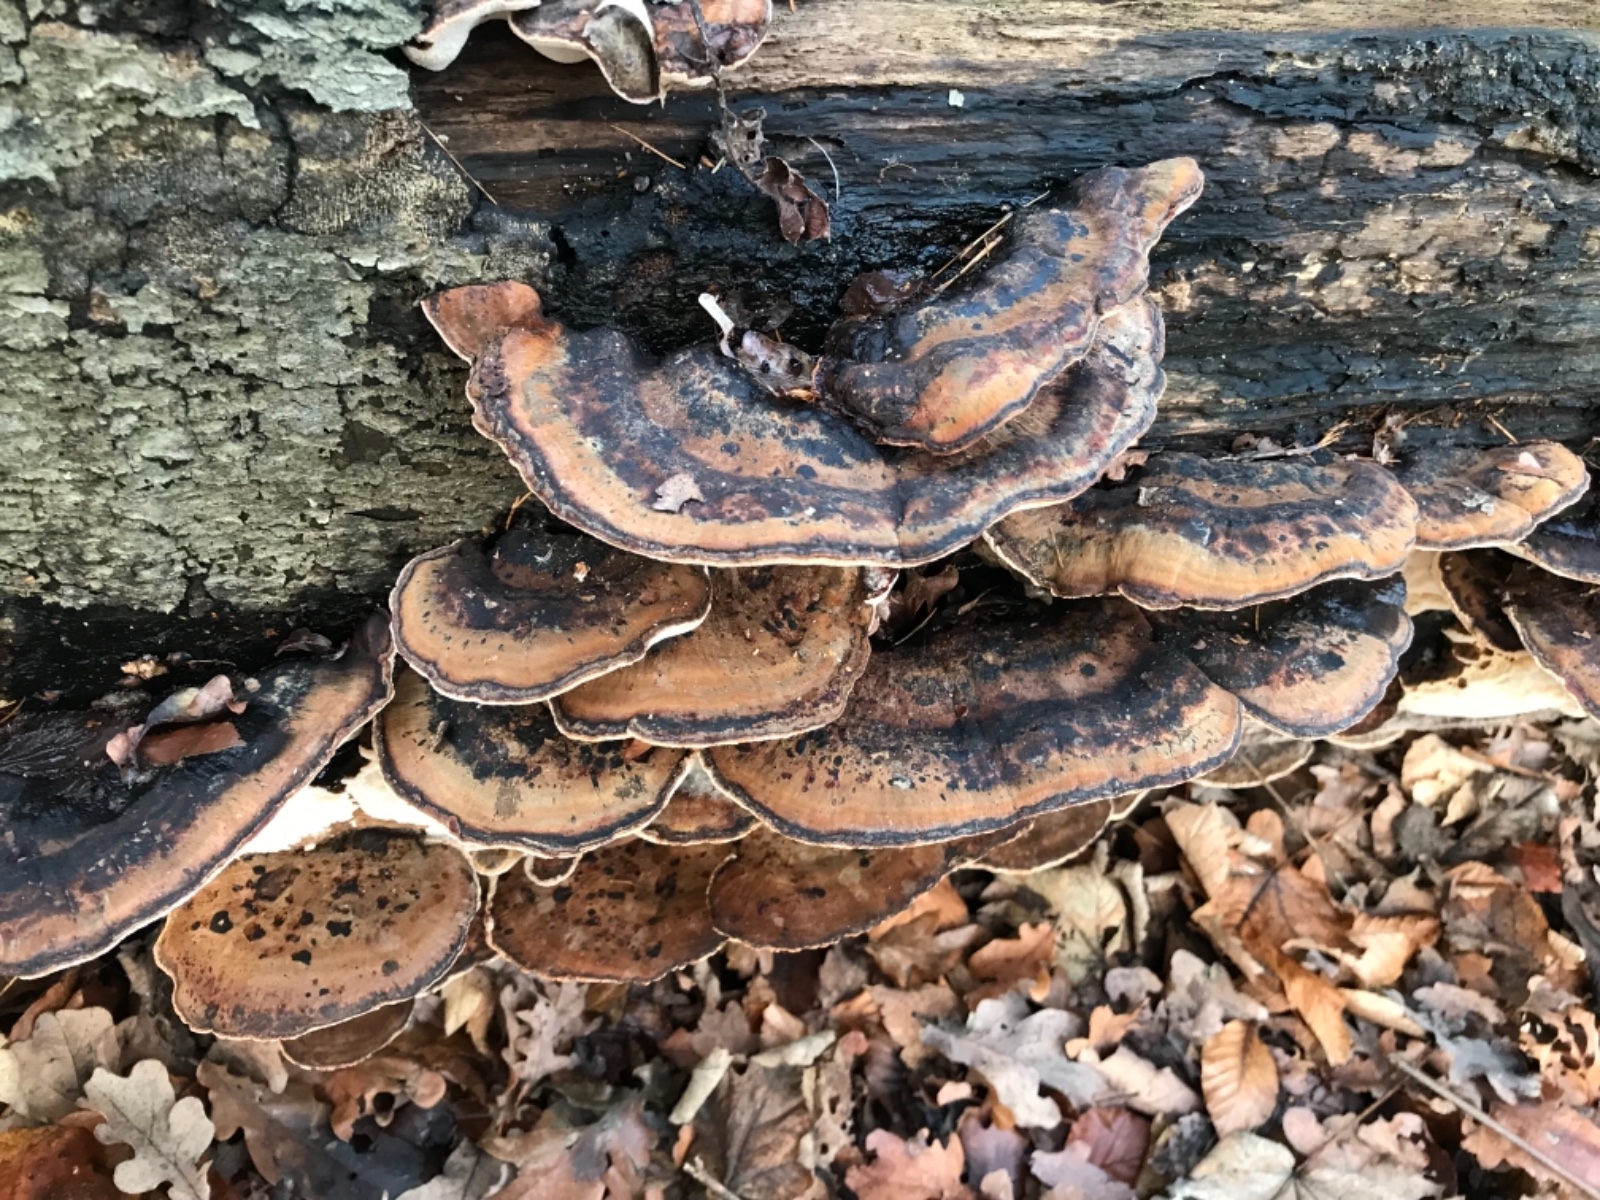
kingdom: Fungi
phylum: Basidiomycota
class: Agaricomycetes
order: Polyporales
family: Ischnodermataceae
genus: Ischnoderma
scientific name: Ischnoderma resinosum
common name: løv-tjæreporesvamp
